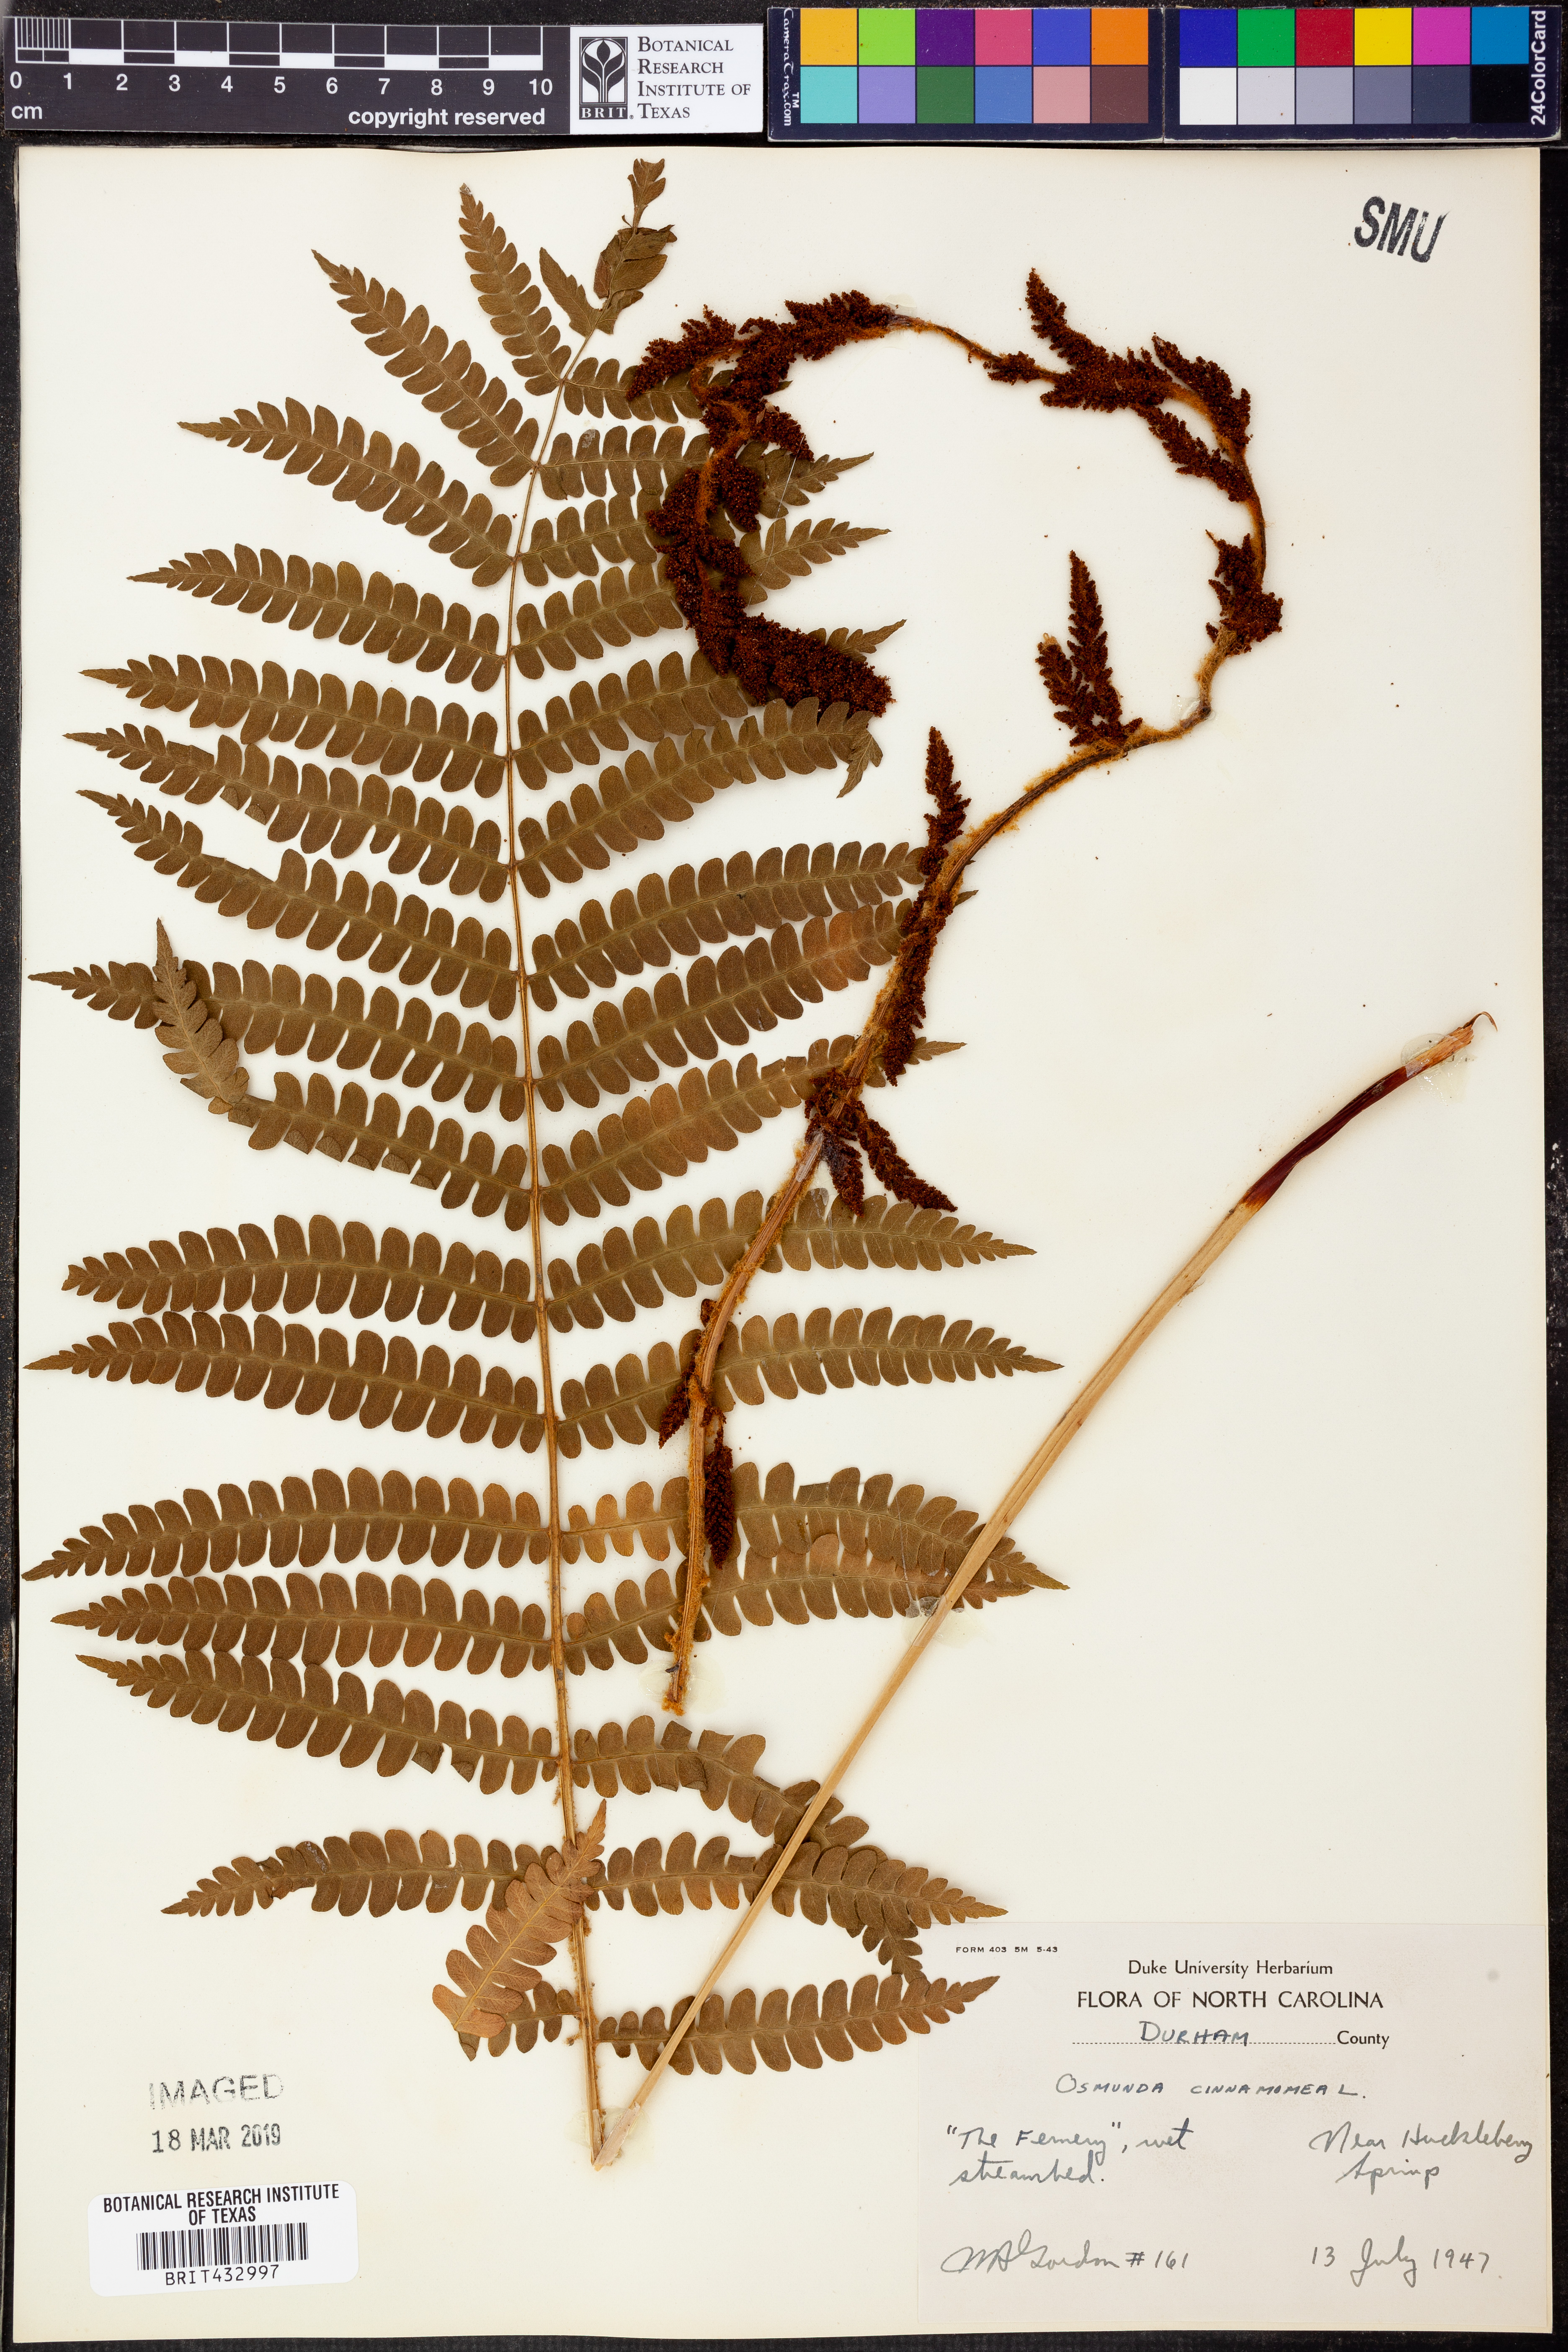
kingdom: Plantae
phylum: Tracheophyta
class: Polypodiopsida
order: Osmundales
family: Osmundaceae
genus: Osmundastrum
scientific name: Osmundastrum cinnamomeum
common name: Cinnamon fern
